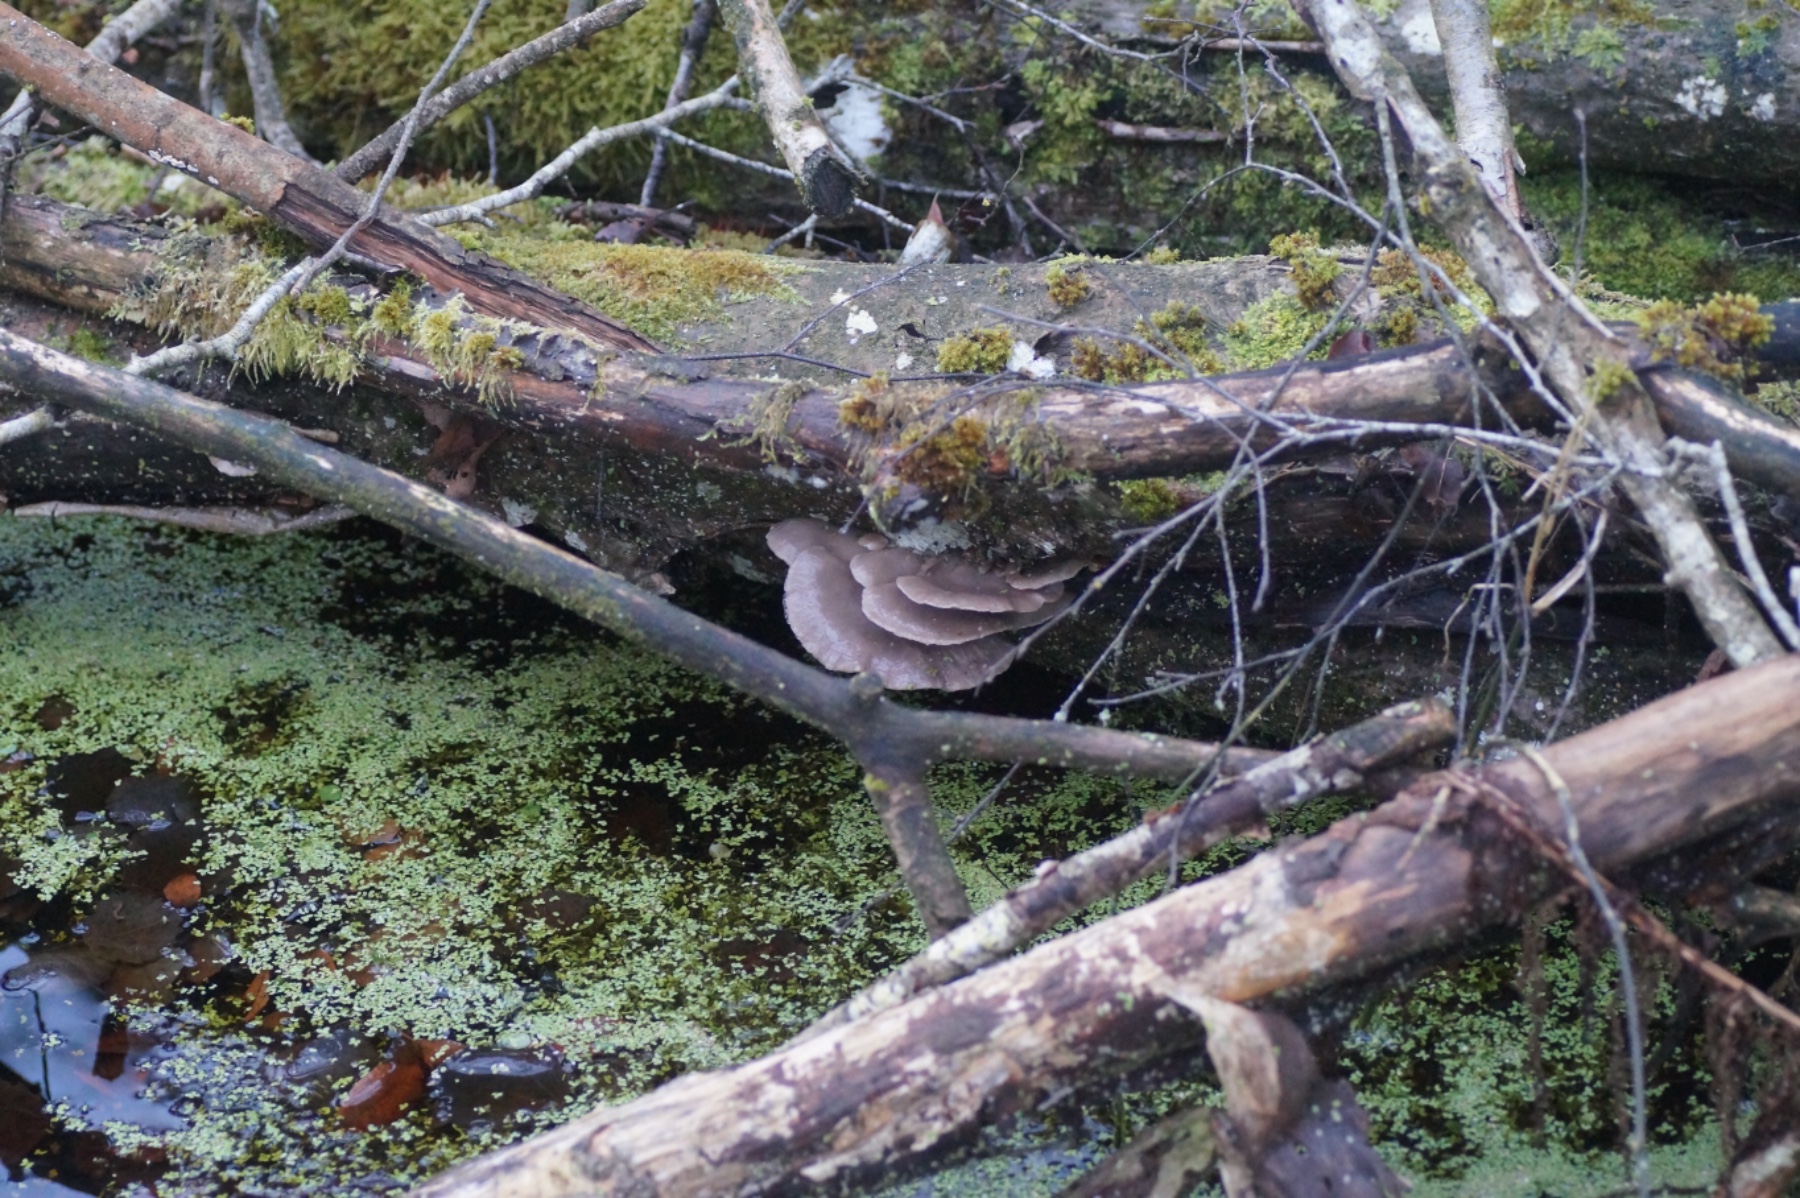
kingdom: Fungi
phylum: Basidiomycota
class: Agaricomycetes
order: Agaricales
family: Pleurotaceae
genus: Pleurotus
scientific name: Pleurotus ostreatus
